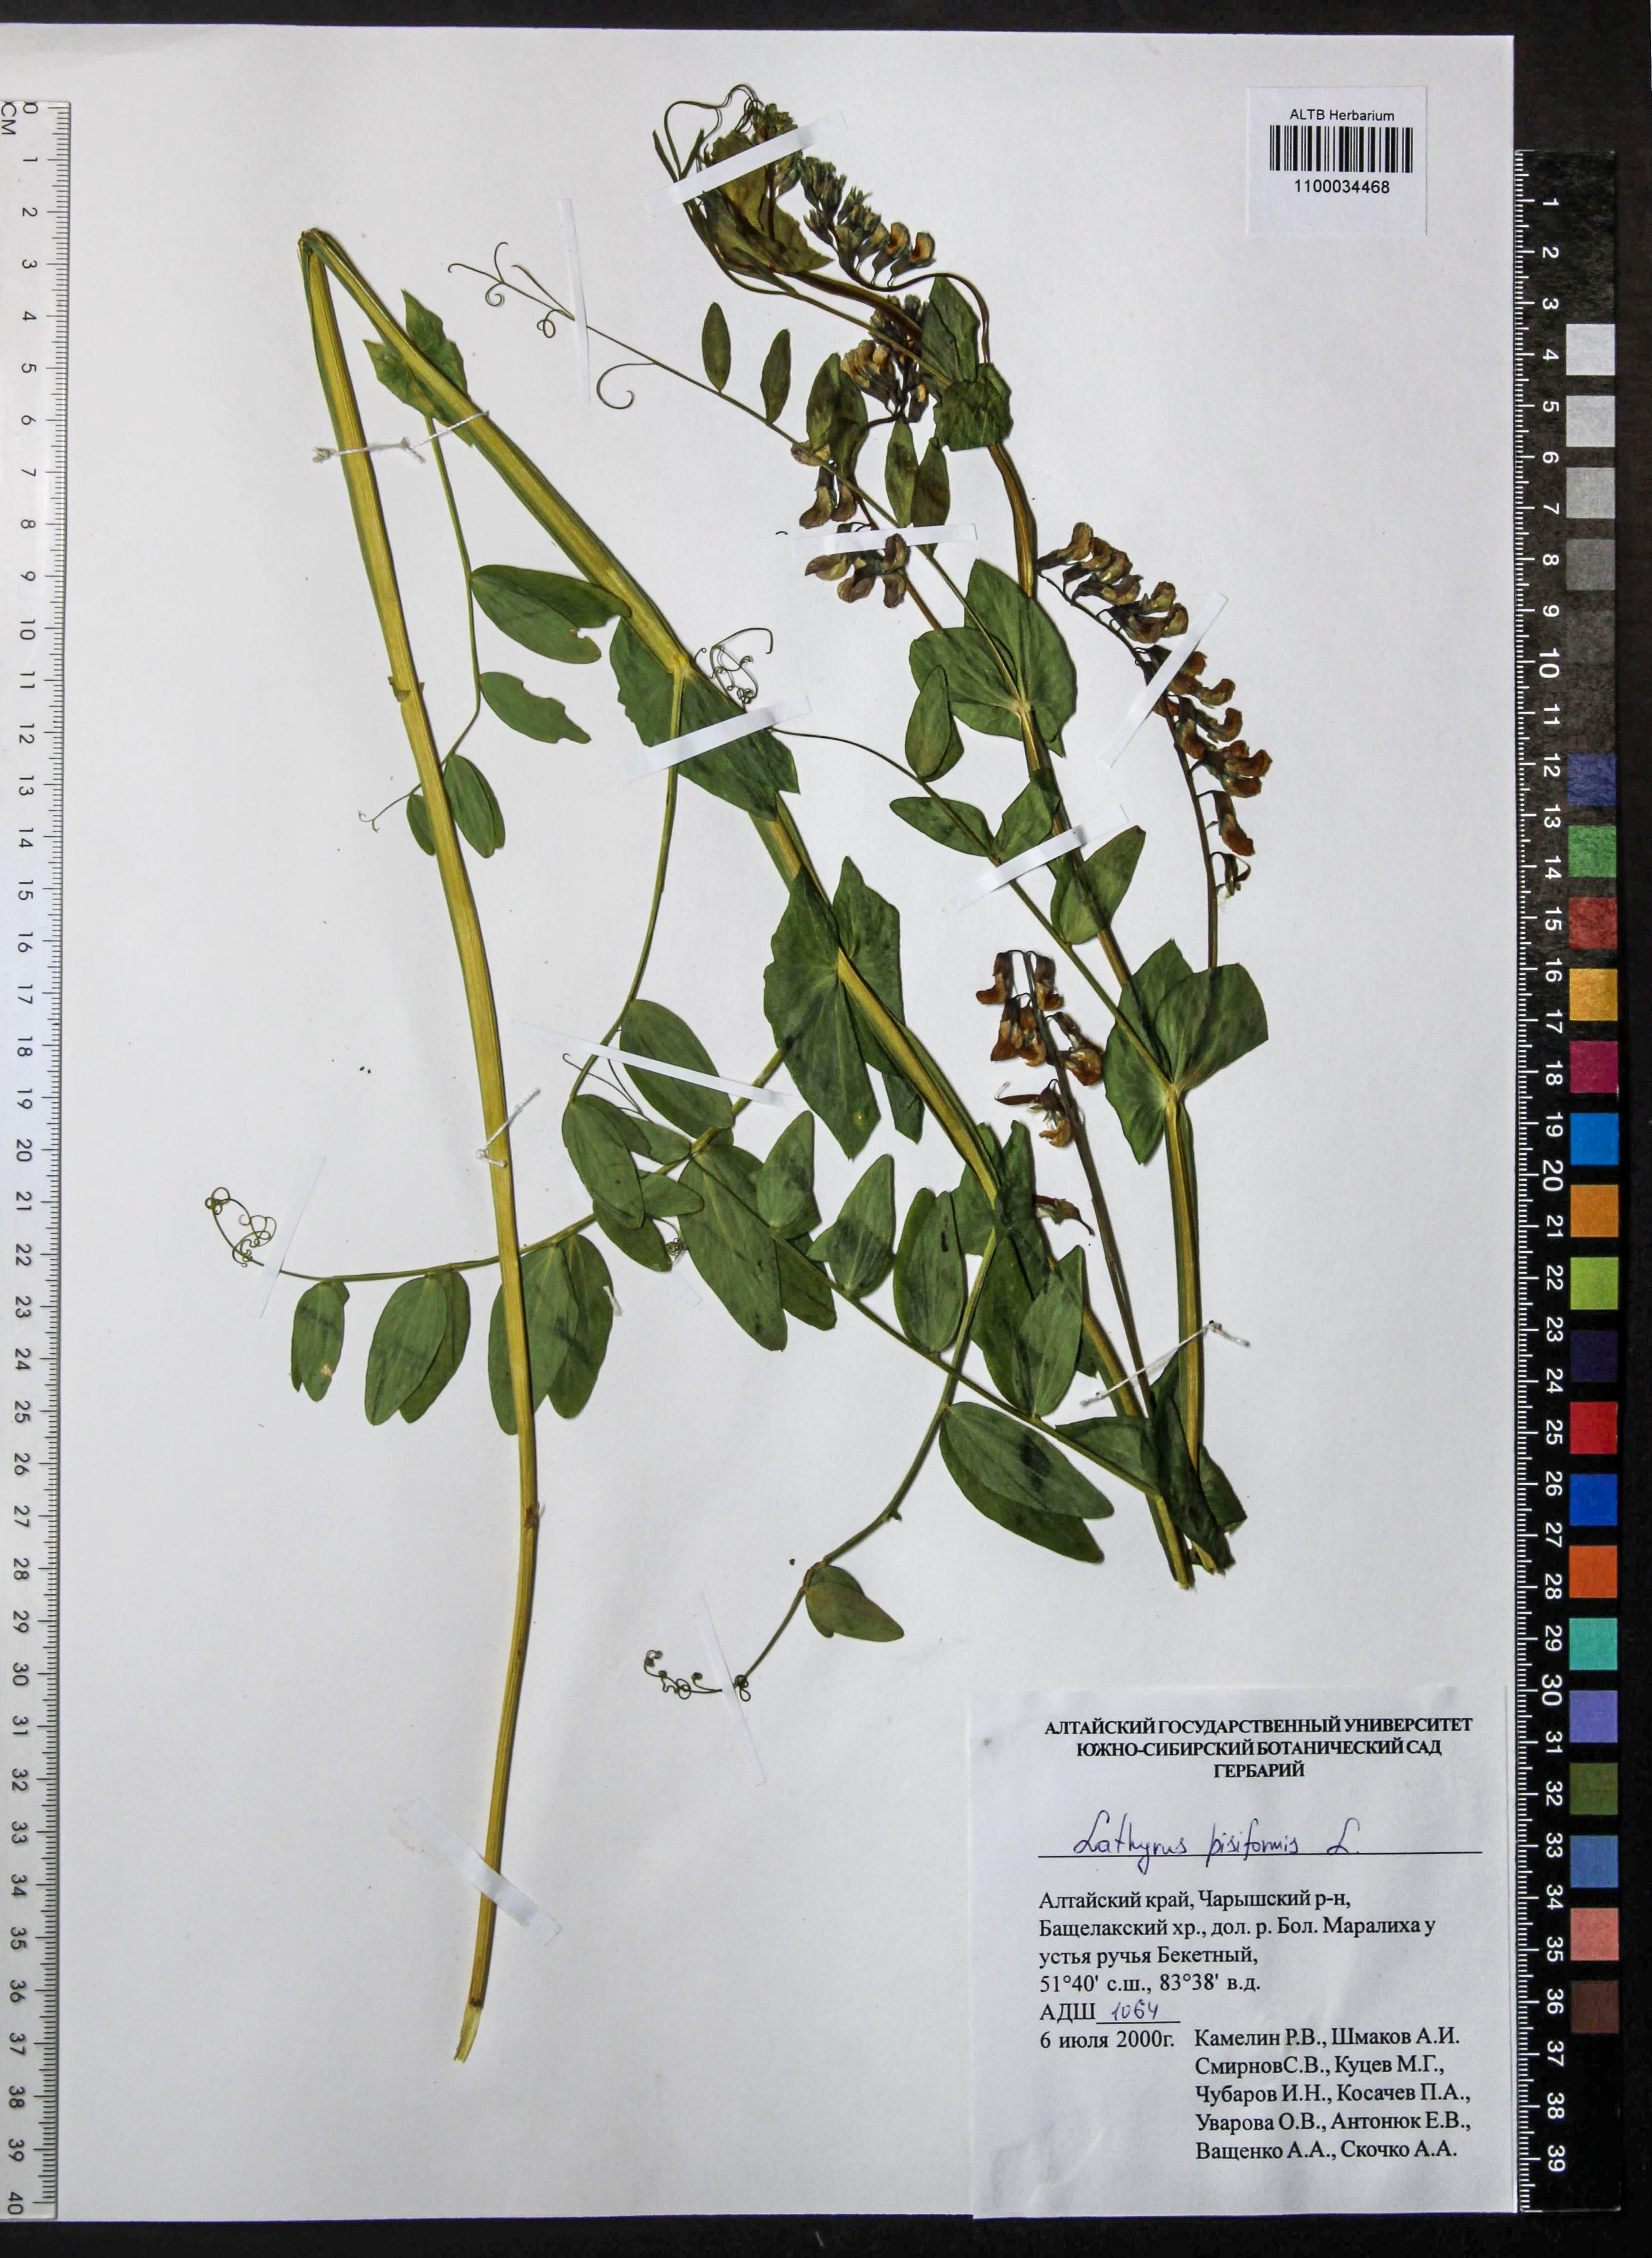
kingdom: Plantae
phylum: Tracheophyta
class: Magnoliopsida
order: Fabales
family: Fabaceae
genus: Lathyrus
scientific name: Lathyrus pisiformis
